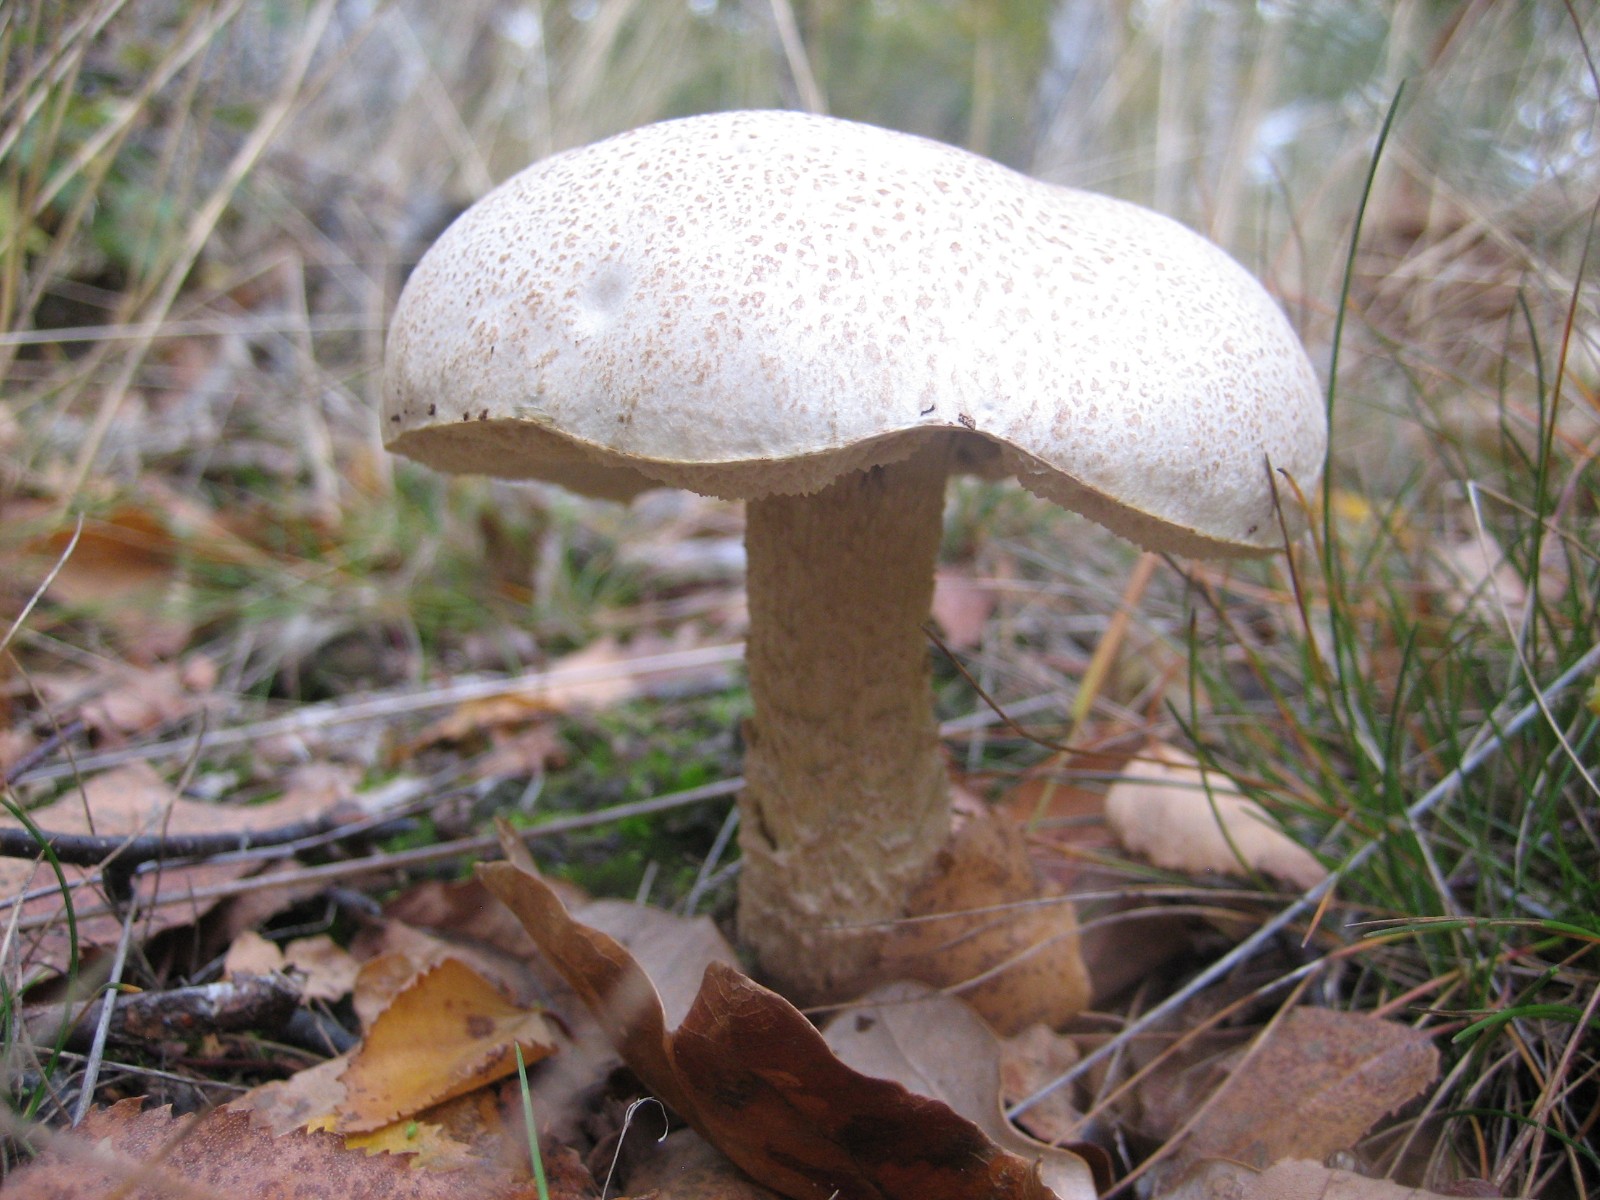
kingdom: Fungi
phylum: Basidiomycota
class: Agaricomycetes
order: Boletales
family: Boletaceae
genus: Leccinum
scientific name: Leccinum scabrum
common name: hvid skælrørhat
